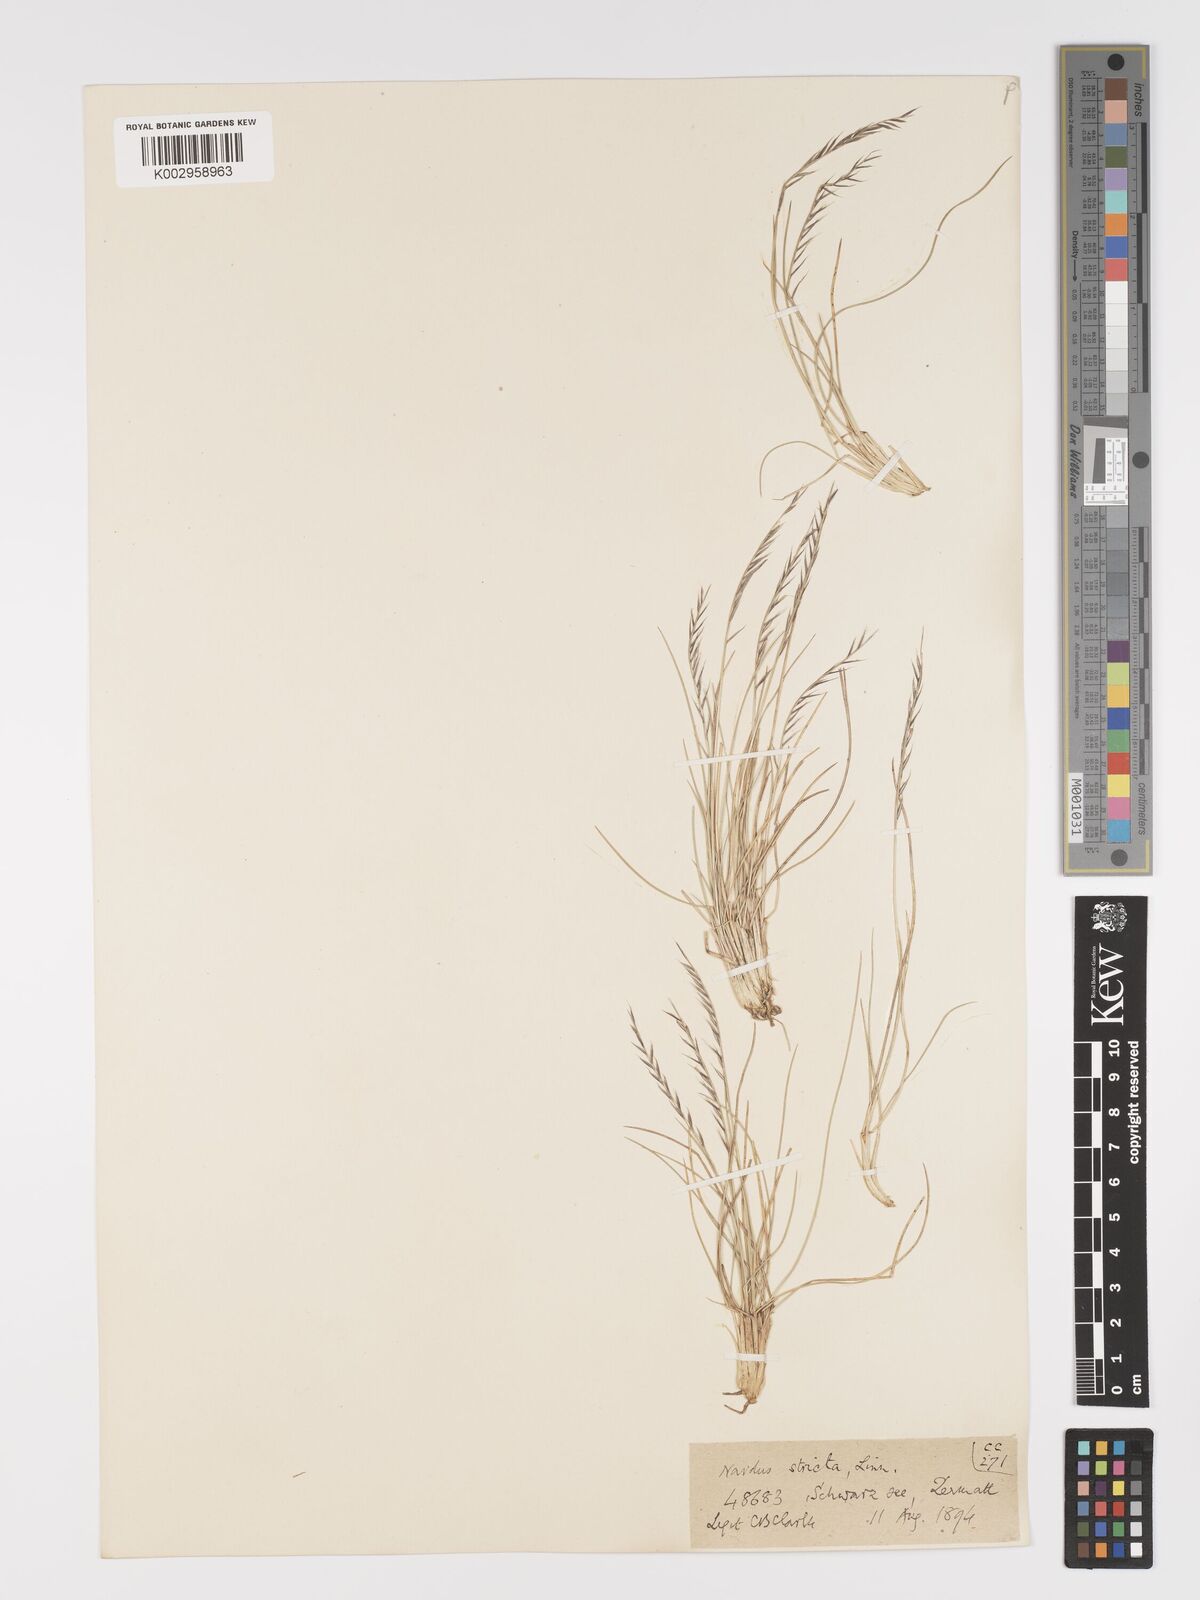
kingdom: Plantae
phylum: Tracheophyta
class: Liliopsida
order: Poales
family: Poaceae
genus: Nardus
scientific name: Nardus stricta
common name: Mat-grass
